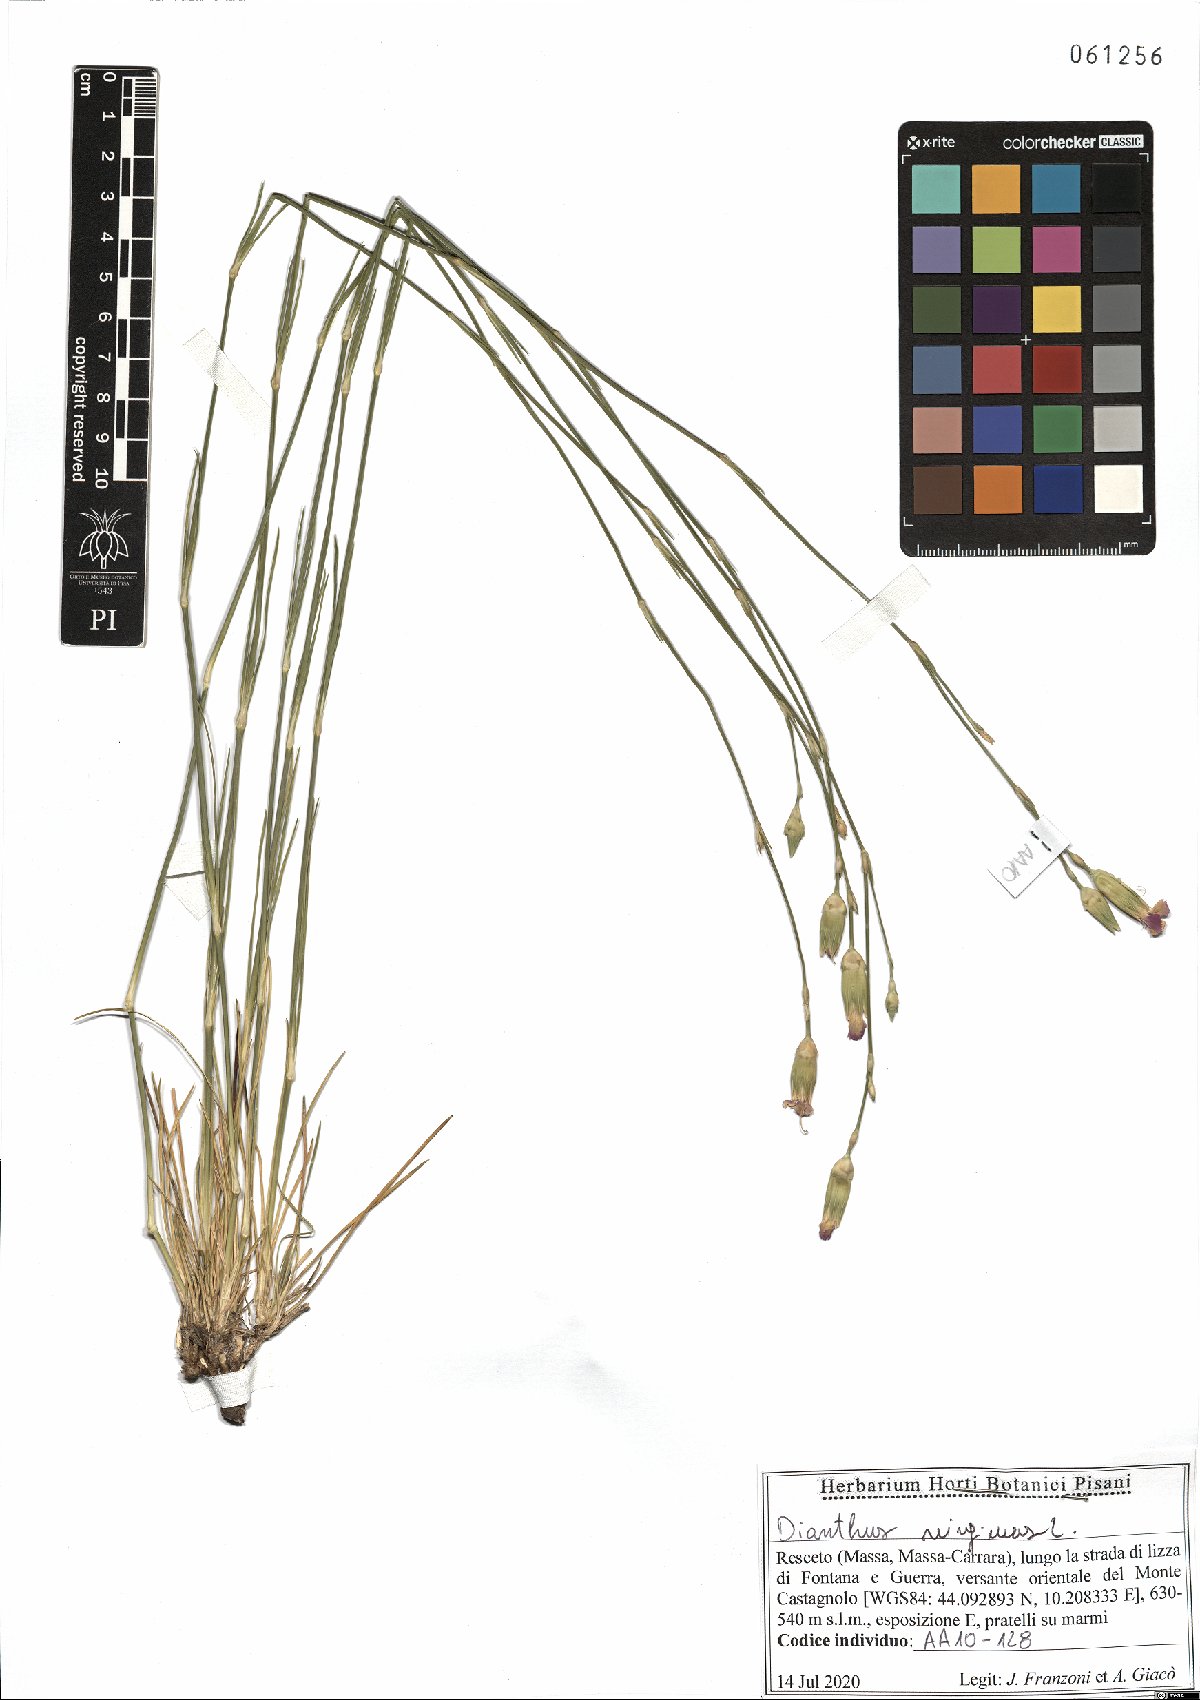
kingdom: Plantae
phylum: Tracheophyta
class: Magnoliopsida
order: Caryophyllales
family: Caryophyllaceae
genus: Dianthus
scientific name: Dianthus virgineus
